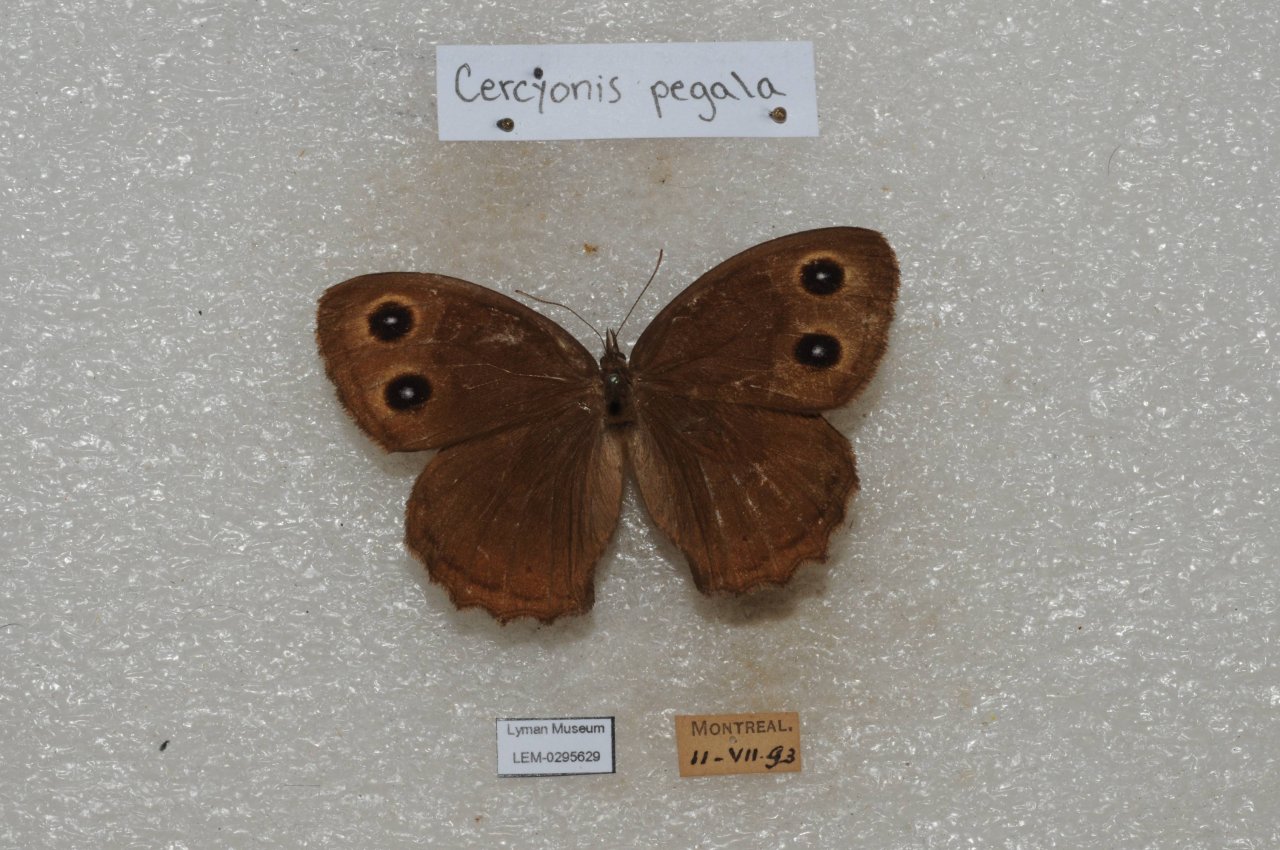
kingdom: Animalia
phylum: Arthropoda
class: Insecta
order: Lepidoptera
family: Nymphalidae
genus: Cercyonis
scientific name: Cercyonis pegala
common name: Common Wood-Nymph
